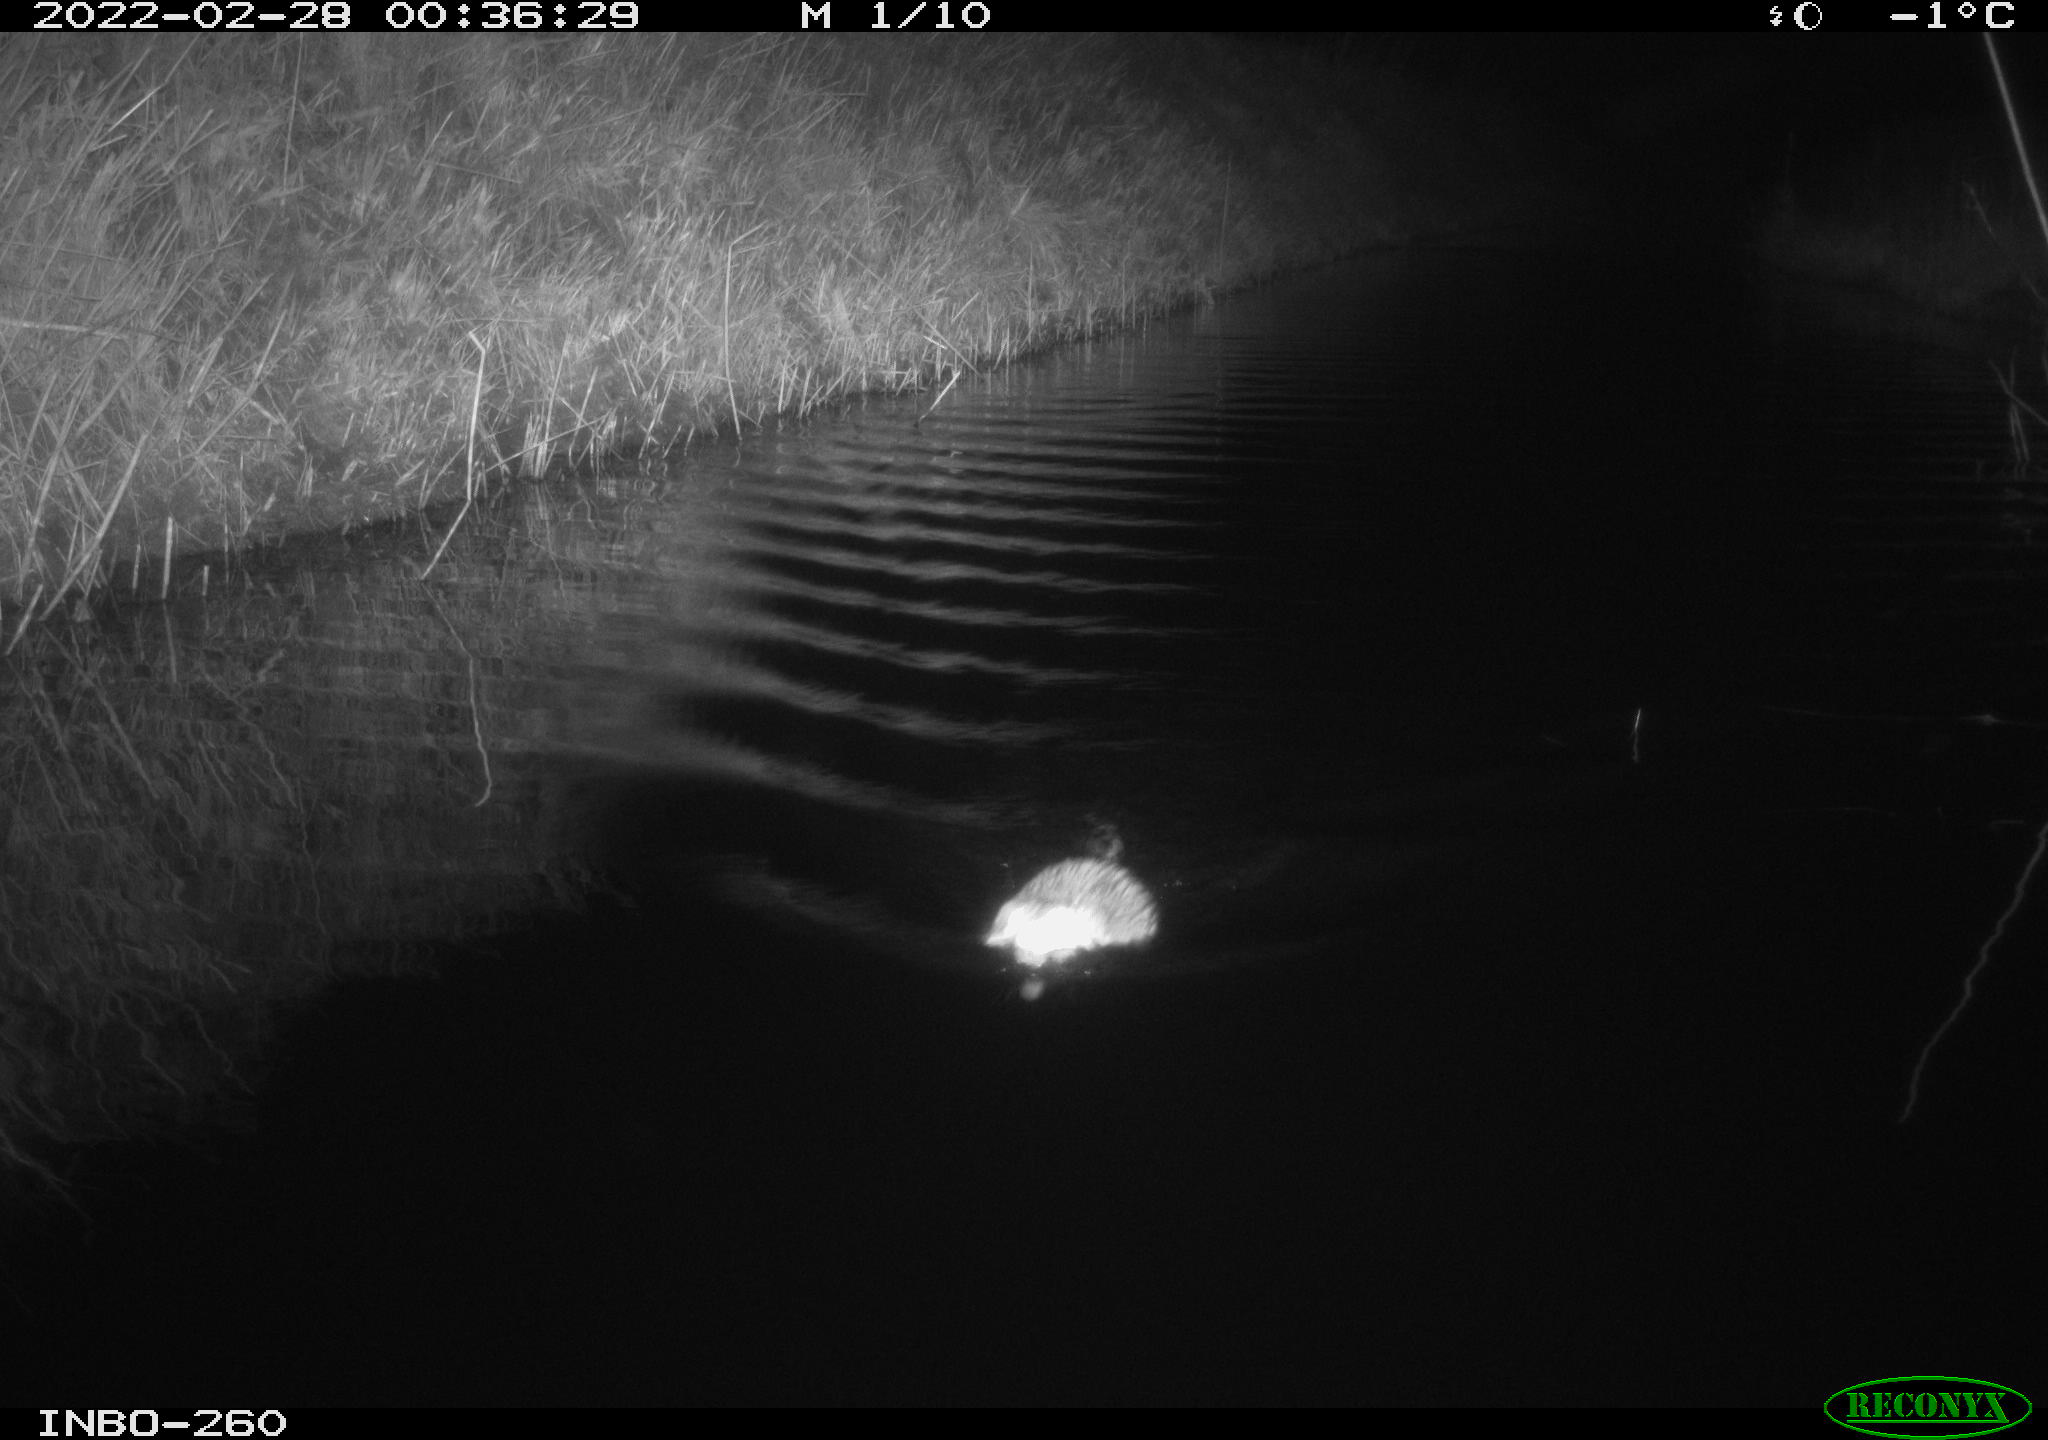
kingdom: Animalia
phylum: Chordata
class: Mammalia
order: Rodentia
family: Cricetidae
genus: Ondatra
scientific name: Ondatra zibethicus
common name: Muskrat
